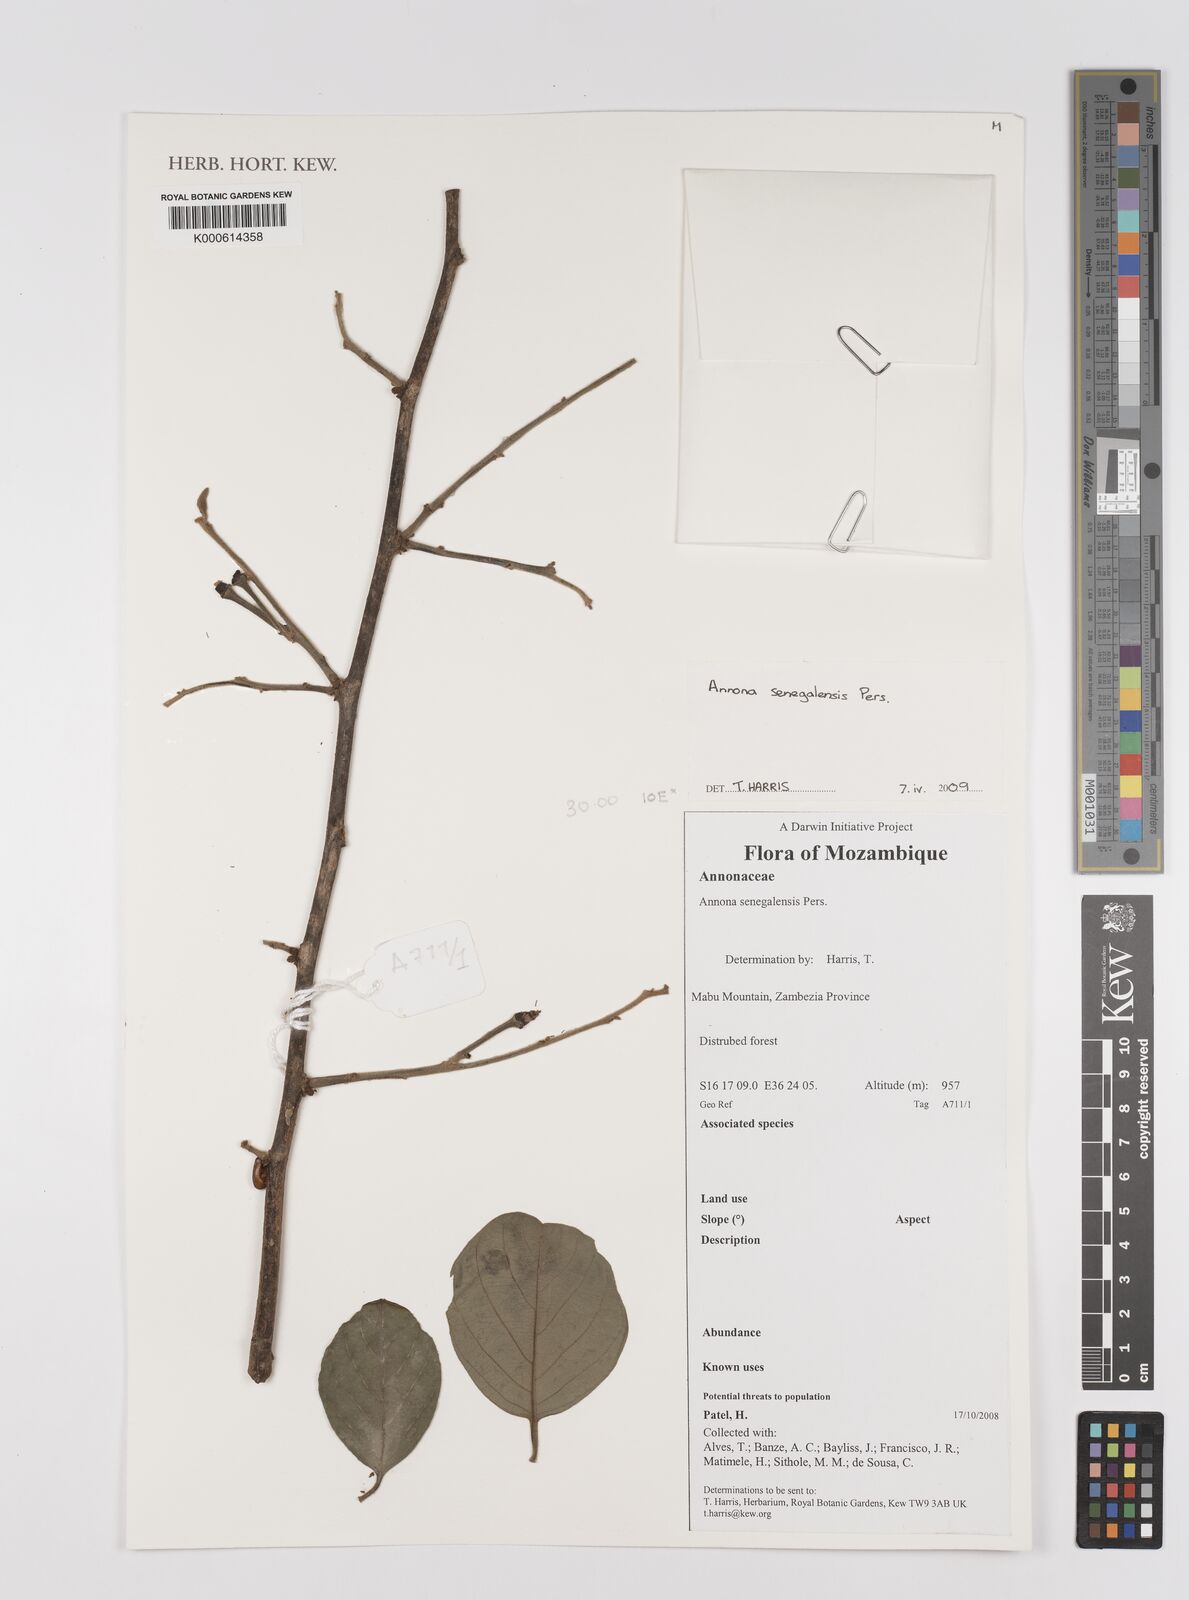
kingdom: Plantae
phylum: Tracheophyta
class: Magnoliopsida
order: Magnoliales
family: Annonaceae
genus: Annona
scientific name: Annona senegalensis
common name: Wild custard-apple
